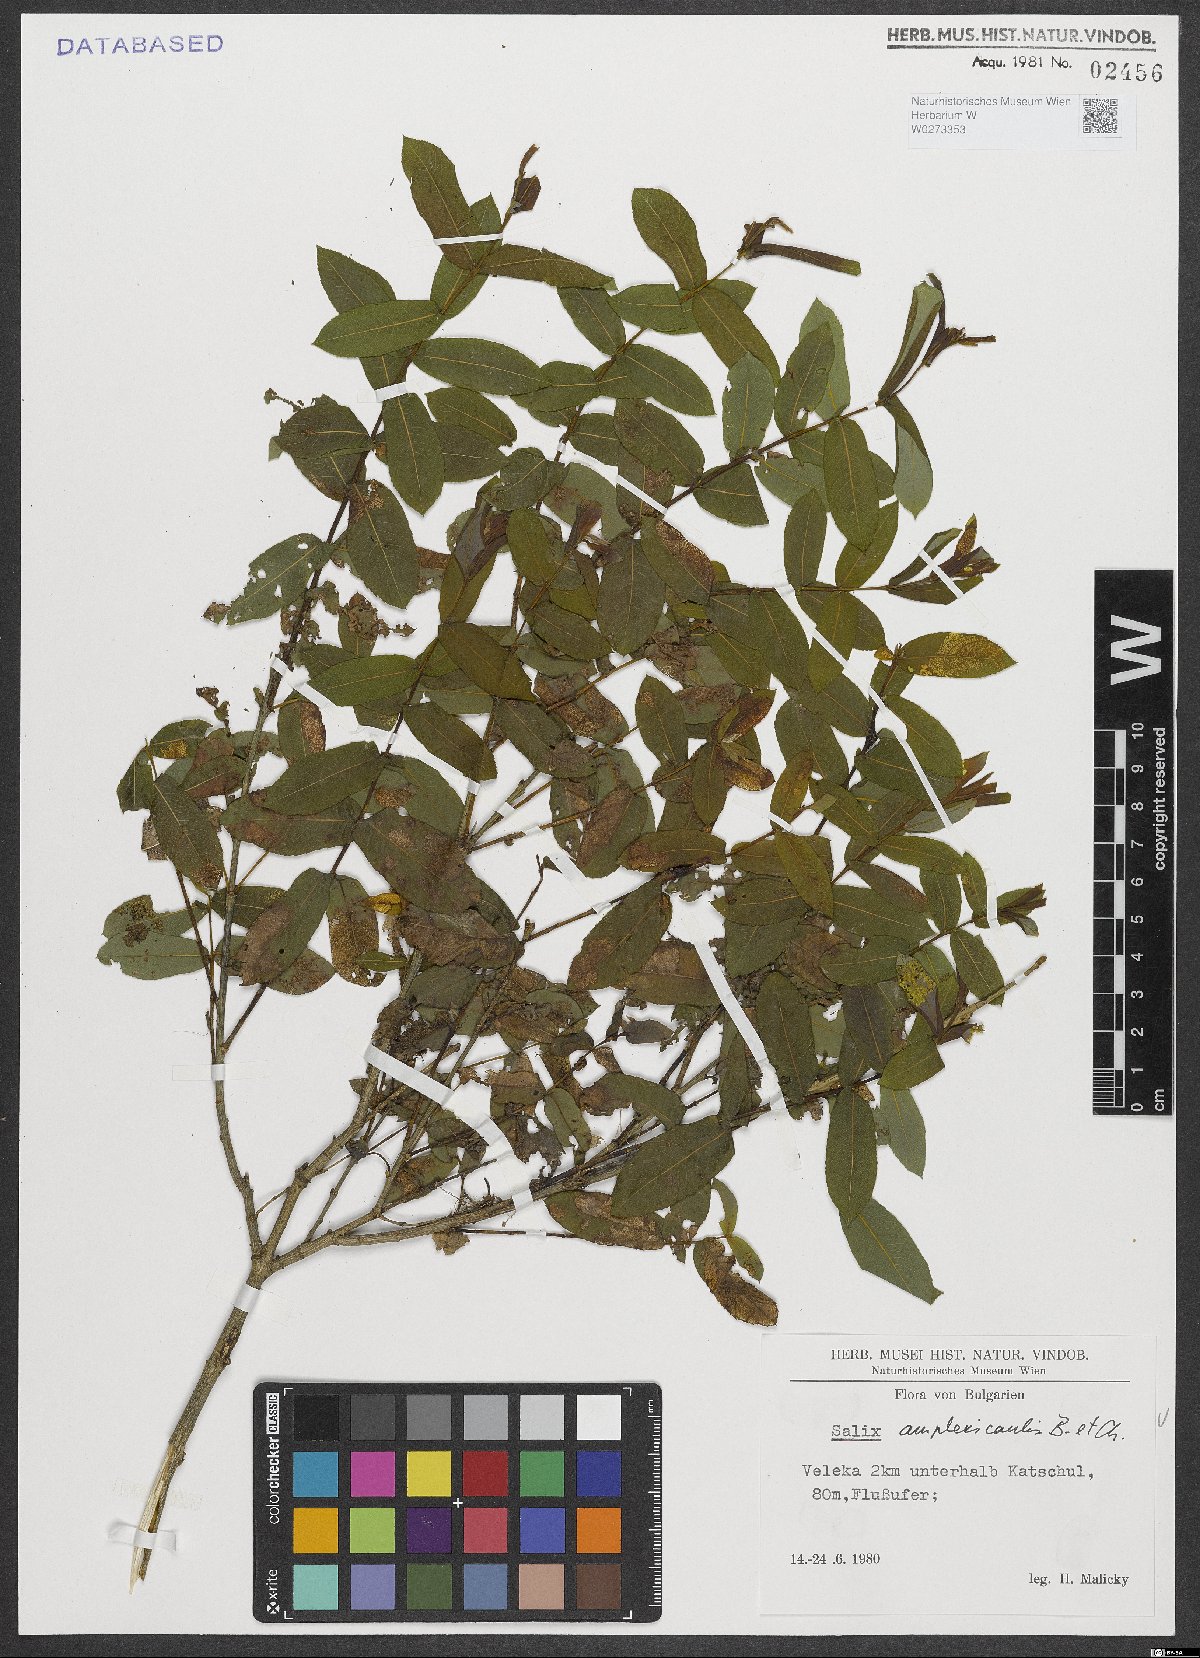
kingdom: Plantae
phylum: Tracheophyta
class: Magnoliopsida
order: Malpighiales
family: Salicaceae
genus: Salix
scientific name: Salix amplexicaulis
